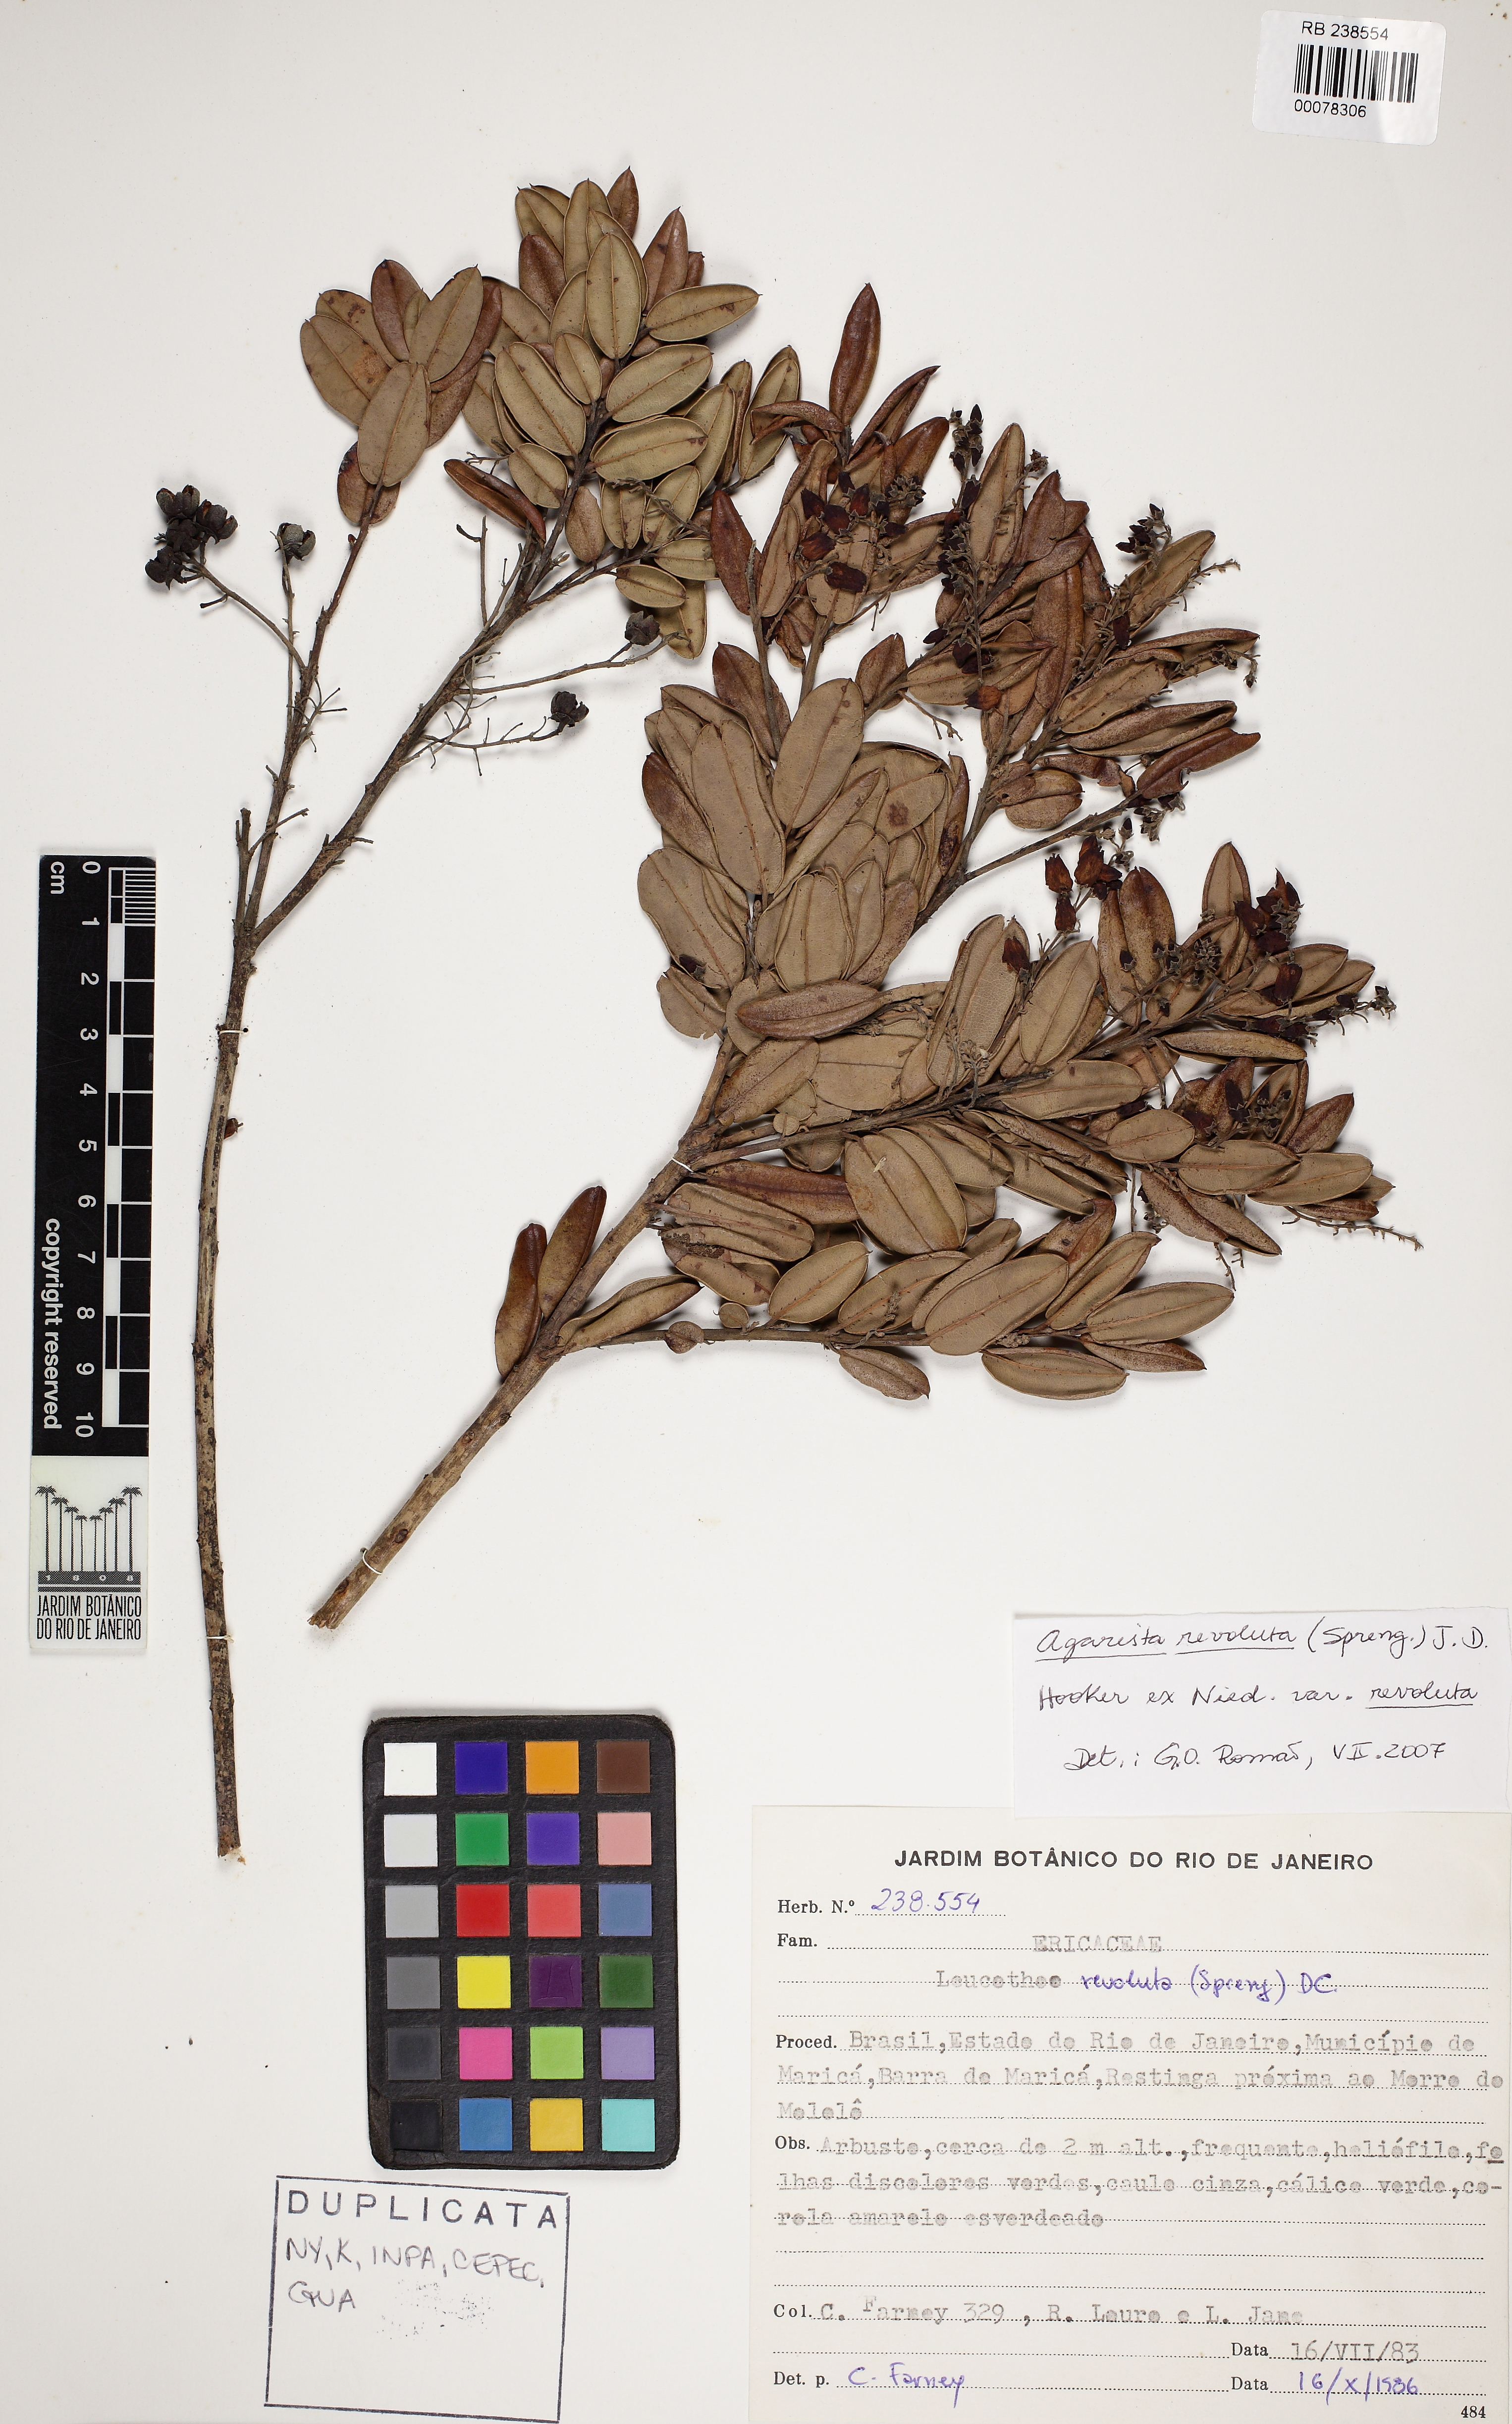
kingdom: Plantae
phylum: Tracheophyta
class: Magnoliopsida
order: Ericales
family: Ericaceae
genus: Agarista
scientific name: Agarista revoluta
